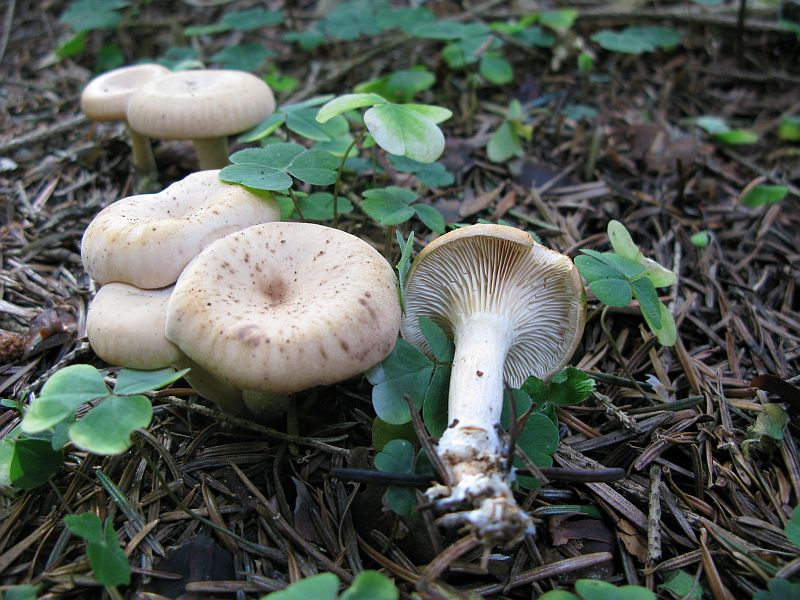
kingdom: Fungi
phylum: Basidiomycota
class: Agaricomycetes
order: Agaricales
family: Tricholomataceae
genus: Paralepista
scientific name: Paralepista gilva
